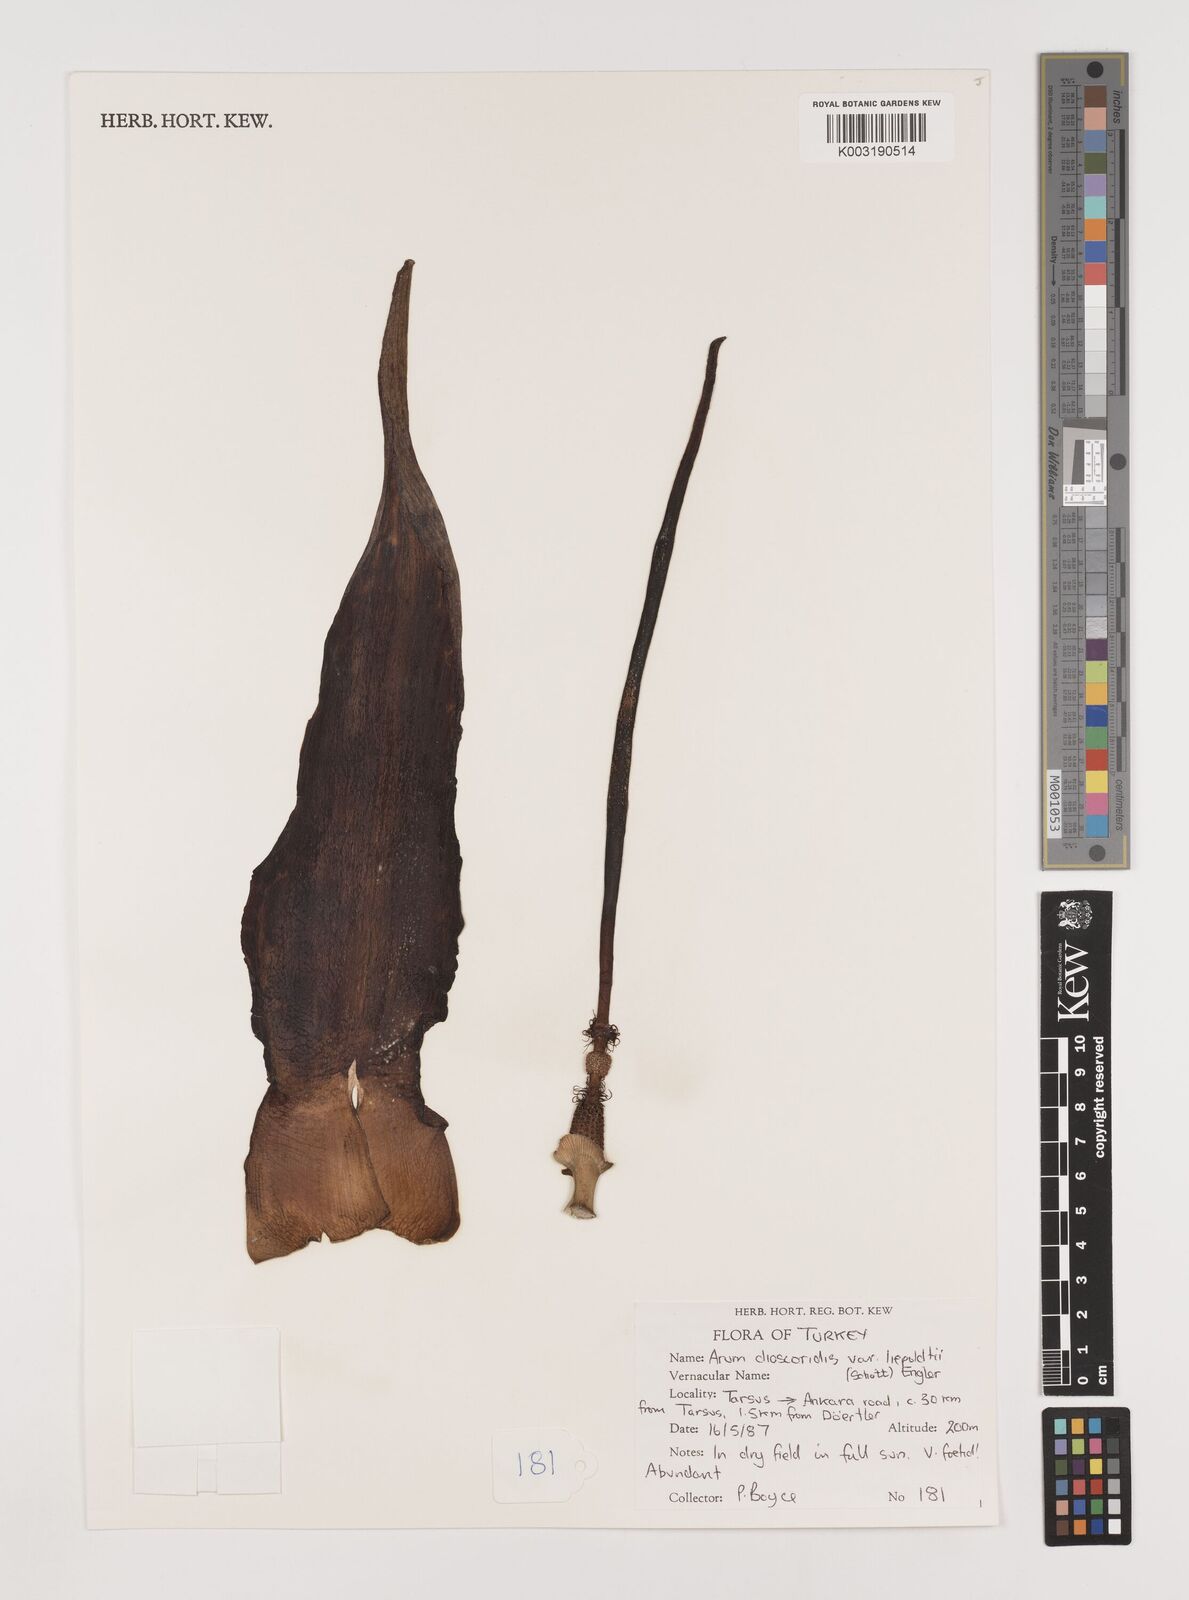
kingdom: Plantae
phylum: Tracheophyta
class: Liliopsida
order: Alismatales
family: Araceae
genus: Arum
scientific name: Arum dioscoridis
